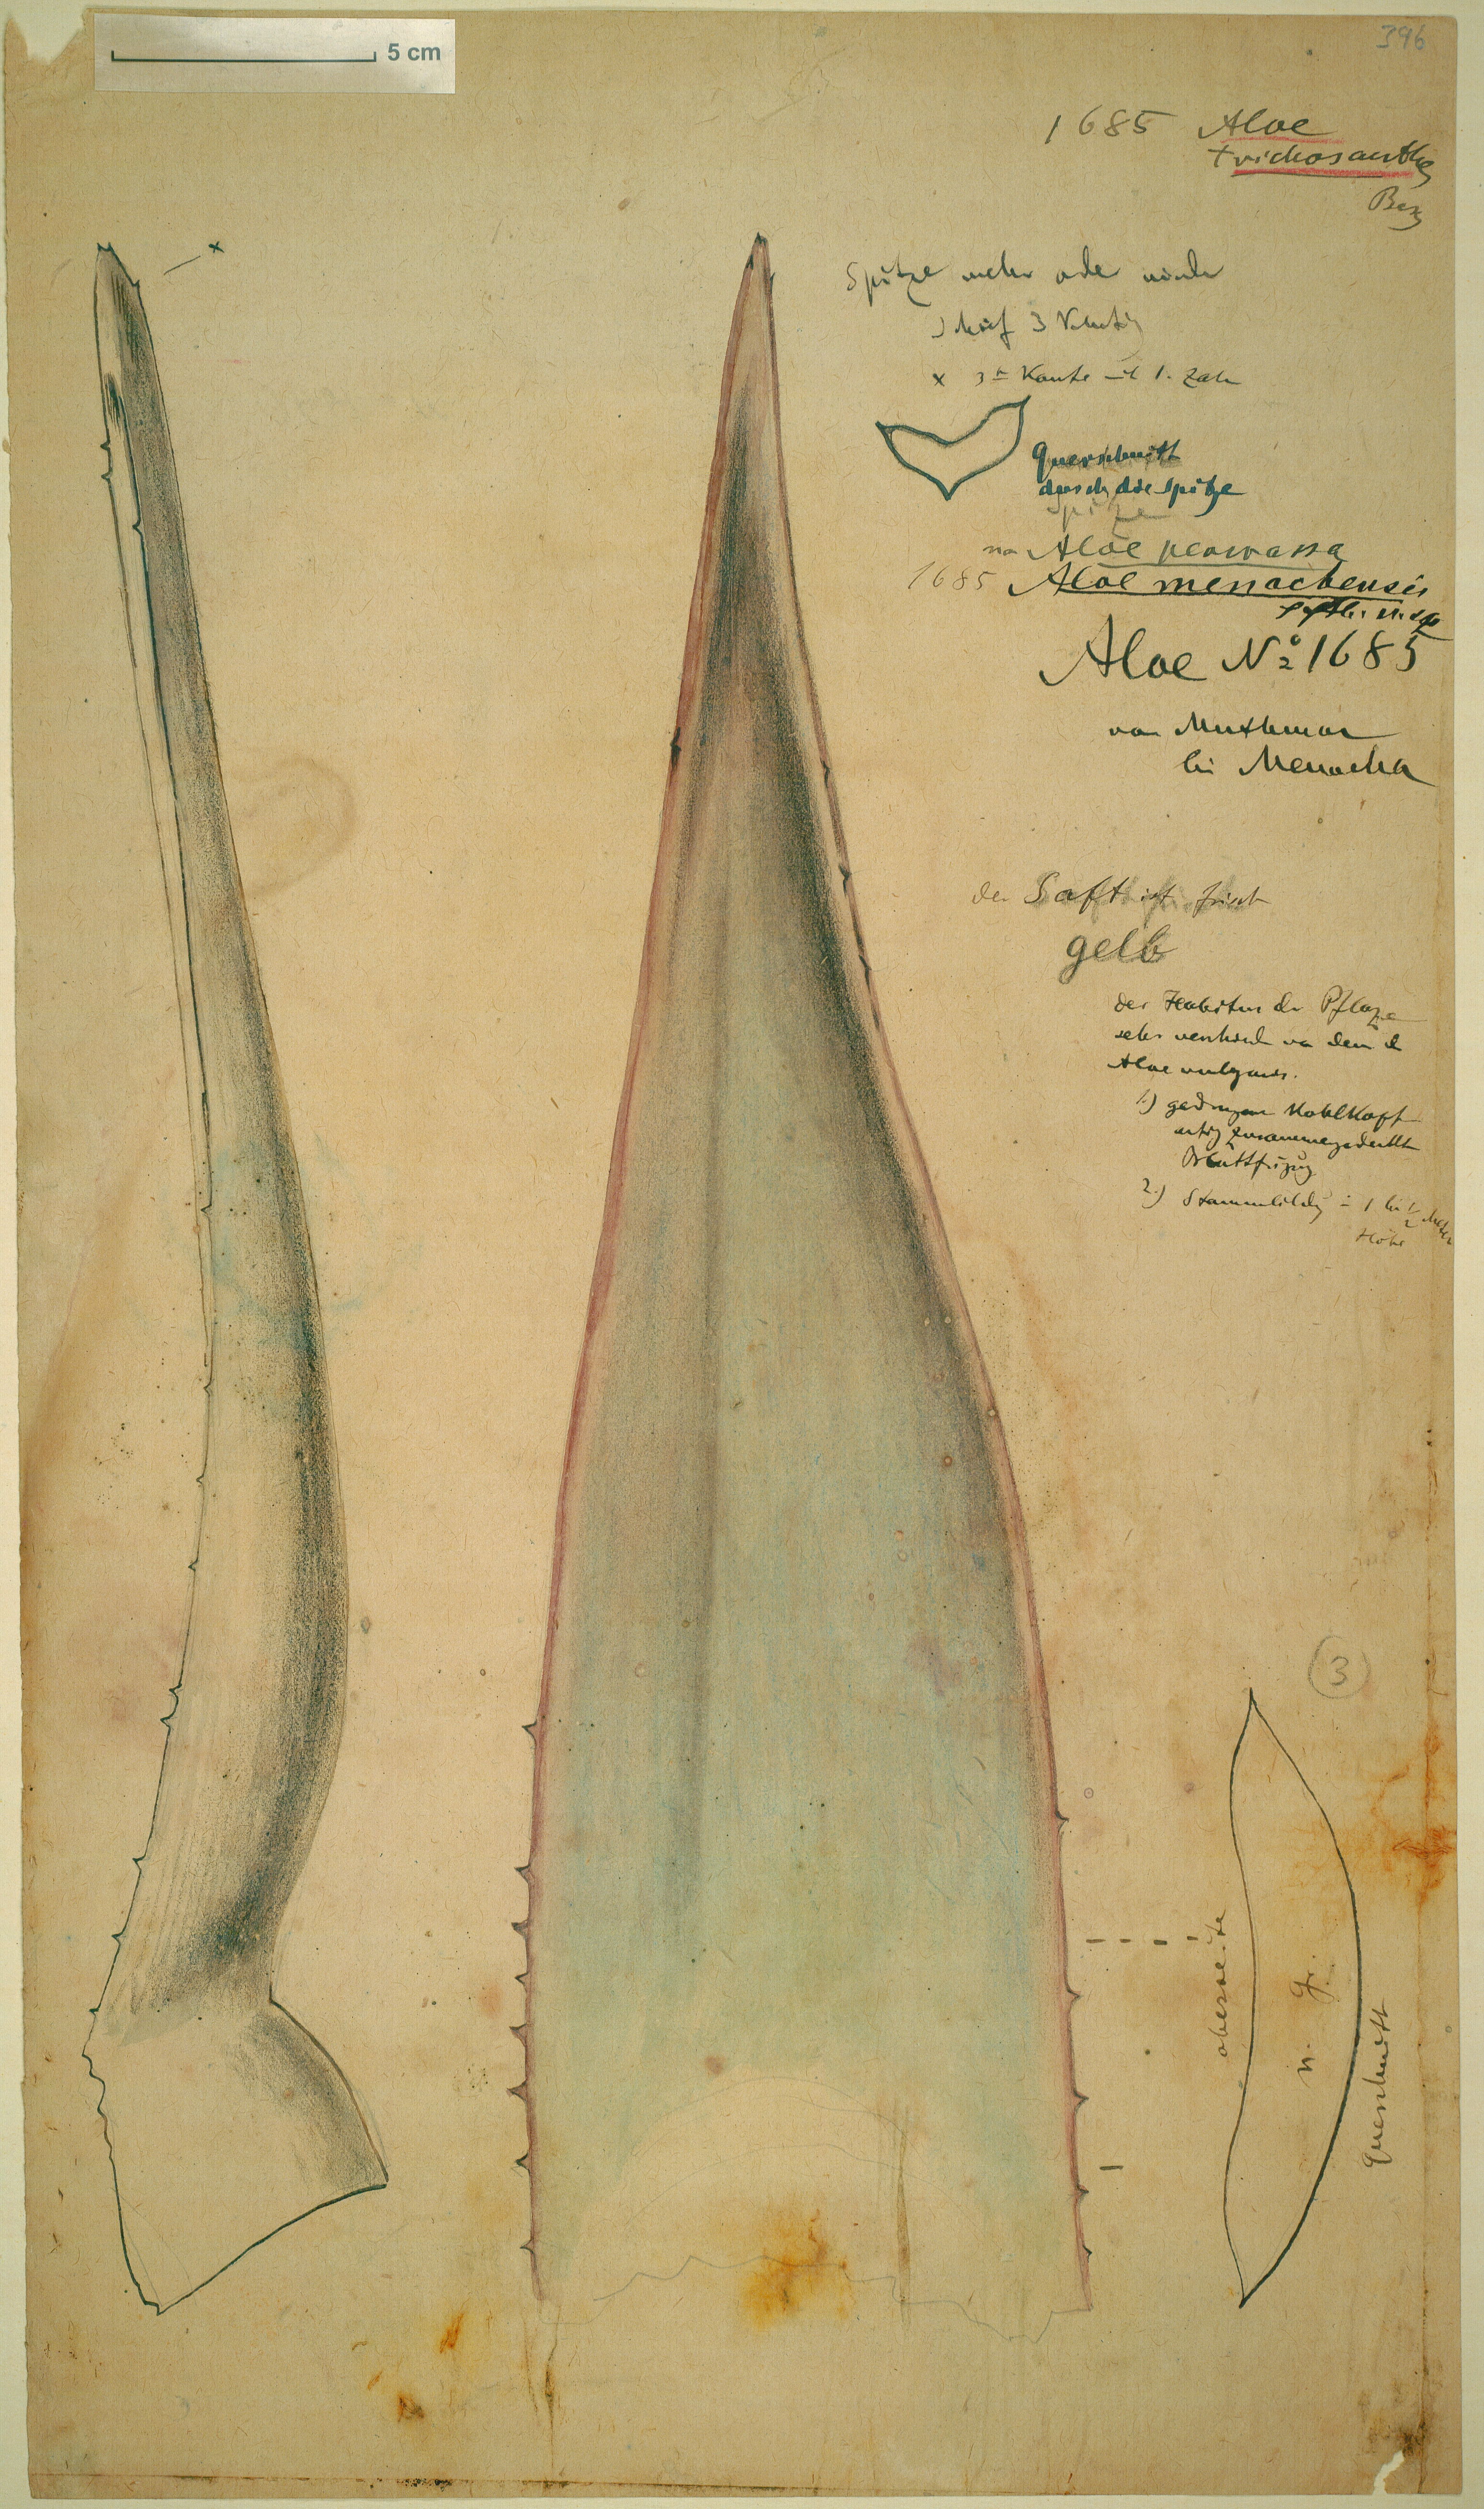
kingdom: Plantae
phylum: Tracheophyta
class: Liliopsida
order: Asparagales
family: Asphodelaceae
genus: Aloe
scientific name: Aloe menachensis
